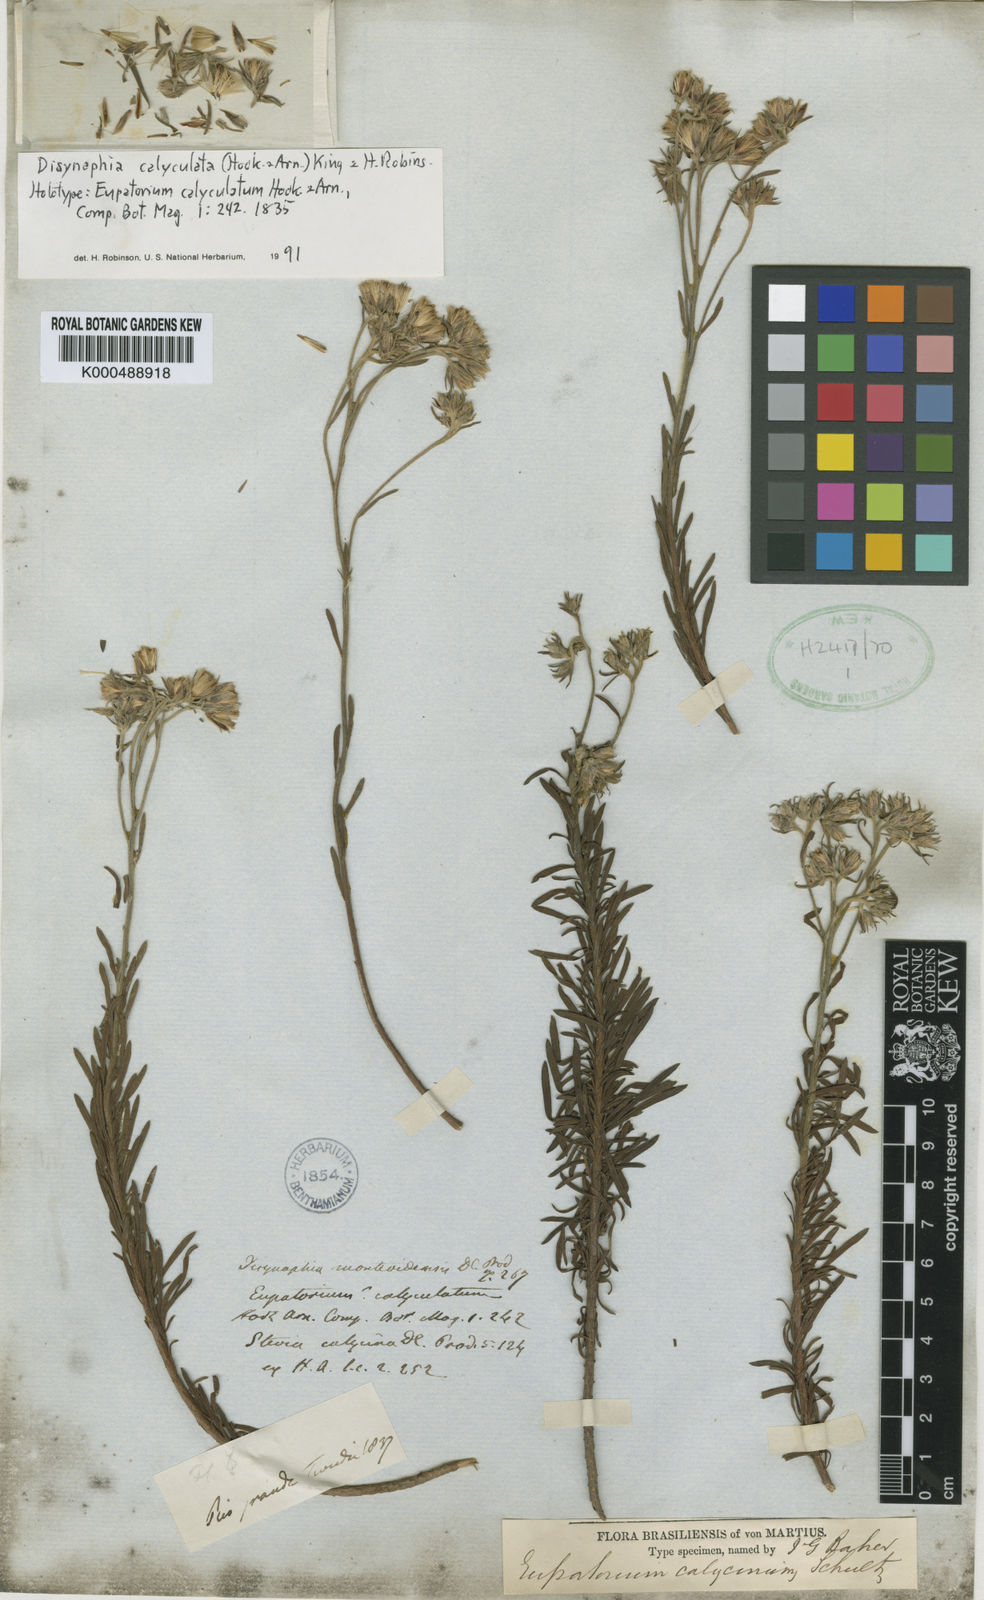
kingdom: Plantae
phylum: Tracheophyta
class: Magnoliopsida
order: Asterales
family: Asteraceae
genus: Disynaphia
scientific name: Disynaphia calyculata
